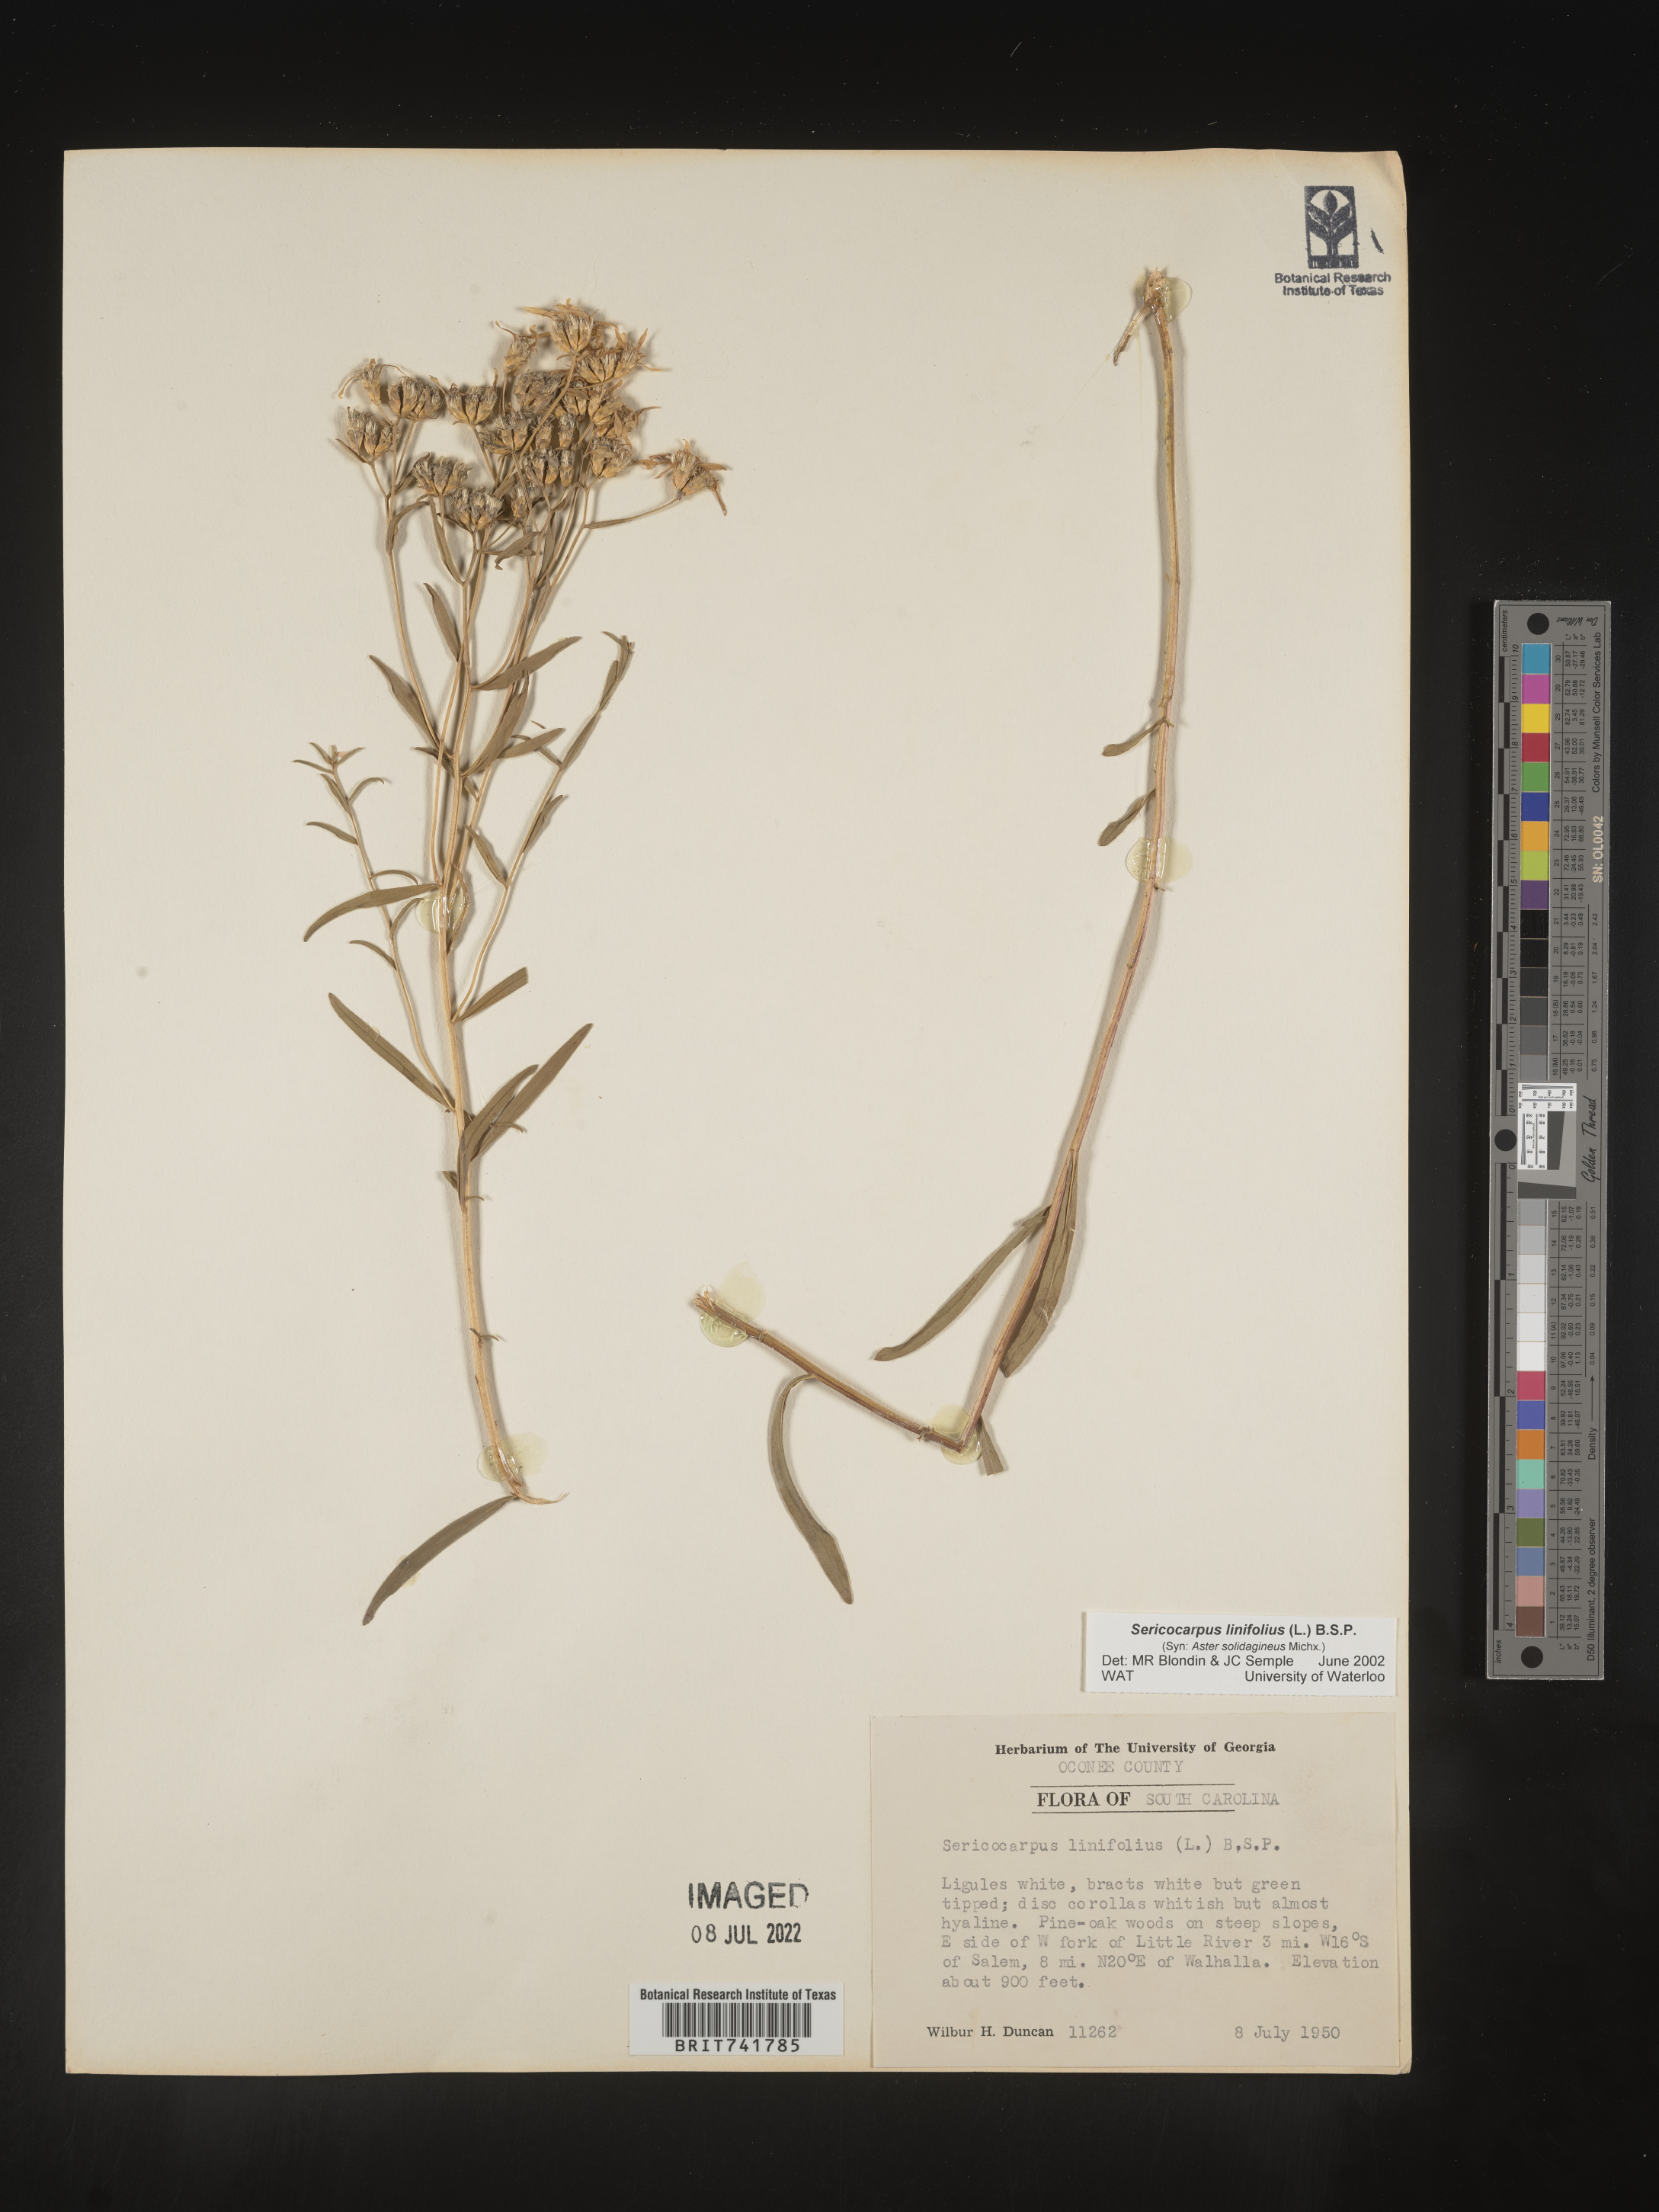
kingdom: Plantae
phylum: Tracheophyta
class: Magnoliopsida
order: Asterales
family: Asteraceae
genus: Sericocarpus
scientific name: Sericocarpus linifolius
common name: Narrow-leaf aster
